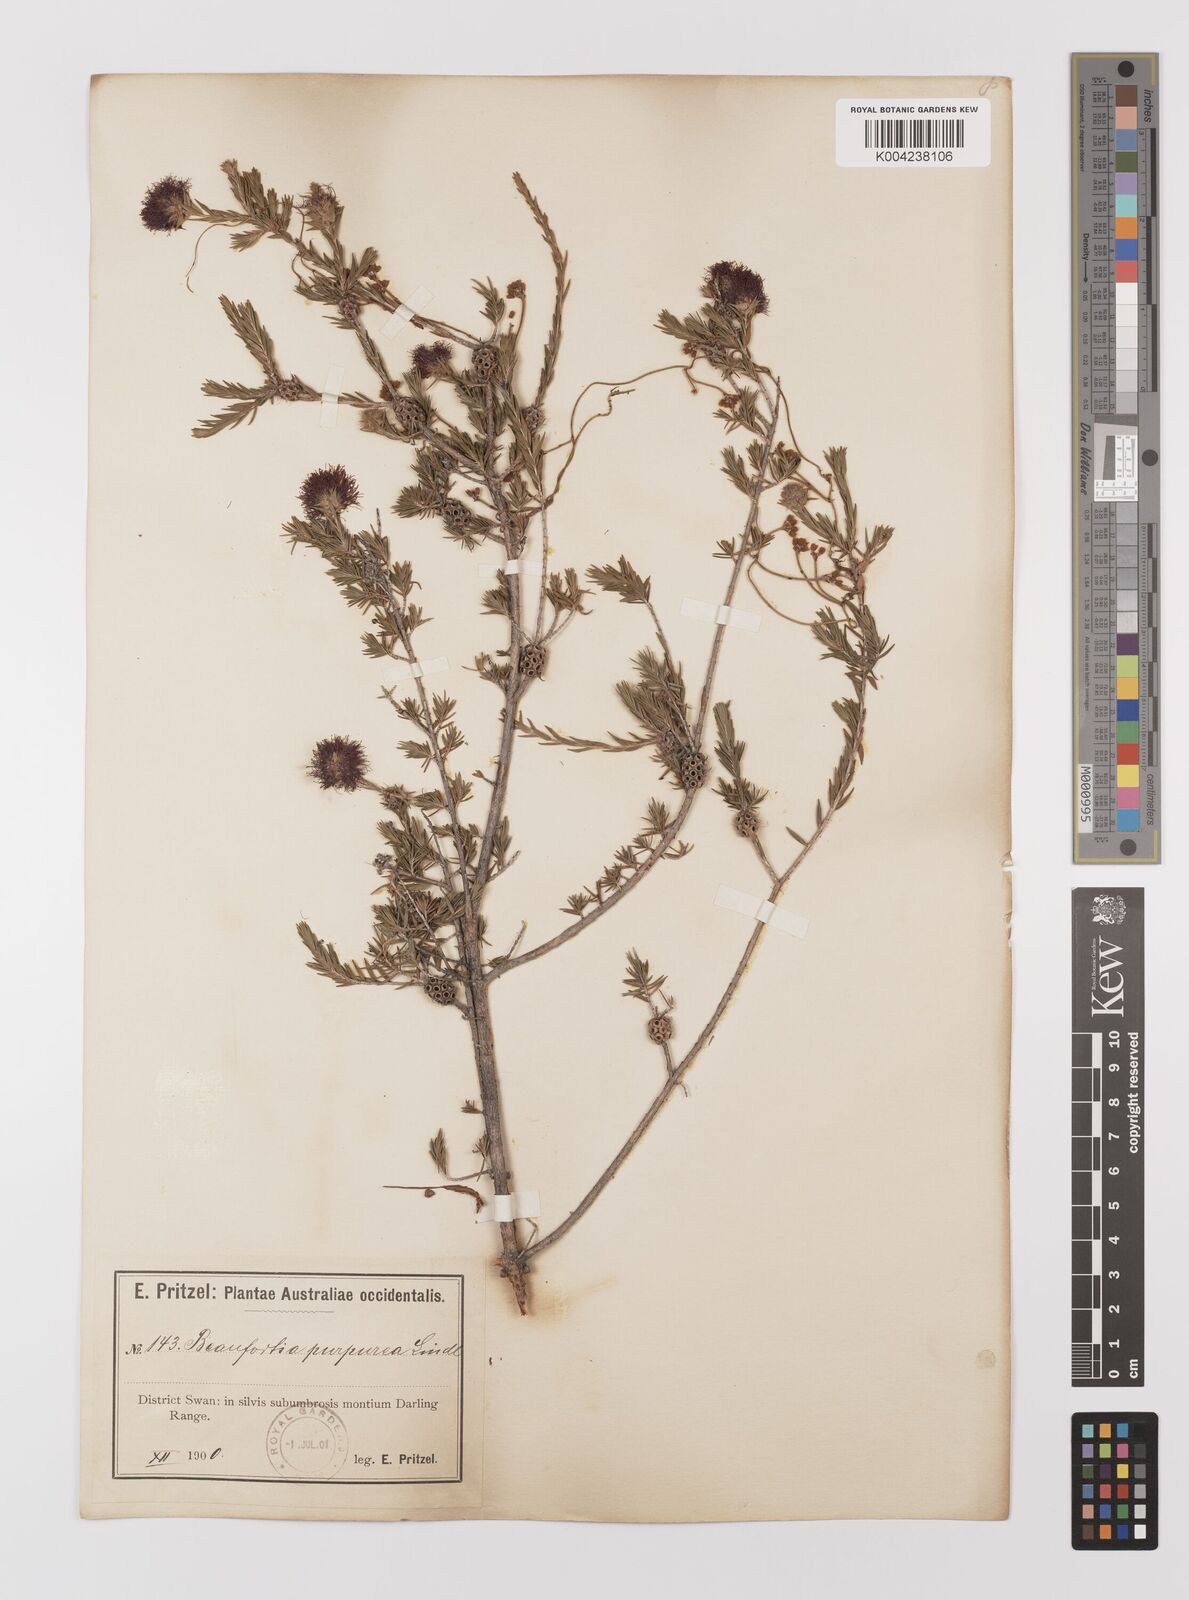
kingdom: Plantae
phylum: Tracheophyta
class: Magnoliopsida
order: Myrtales
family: Myrtaceae
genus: Melaleuca
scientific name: Melaleuca purpurea
